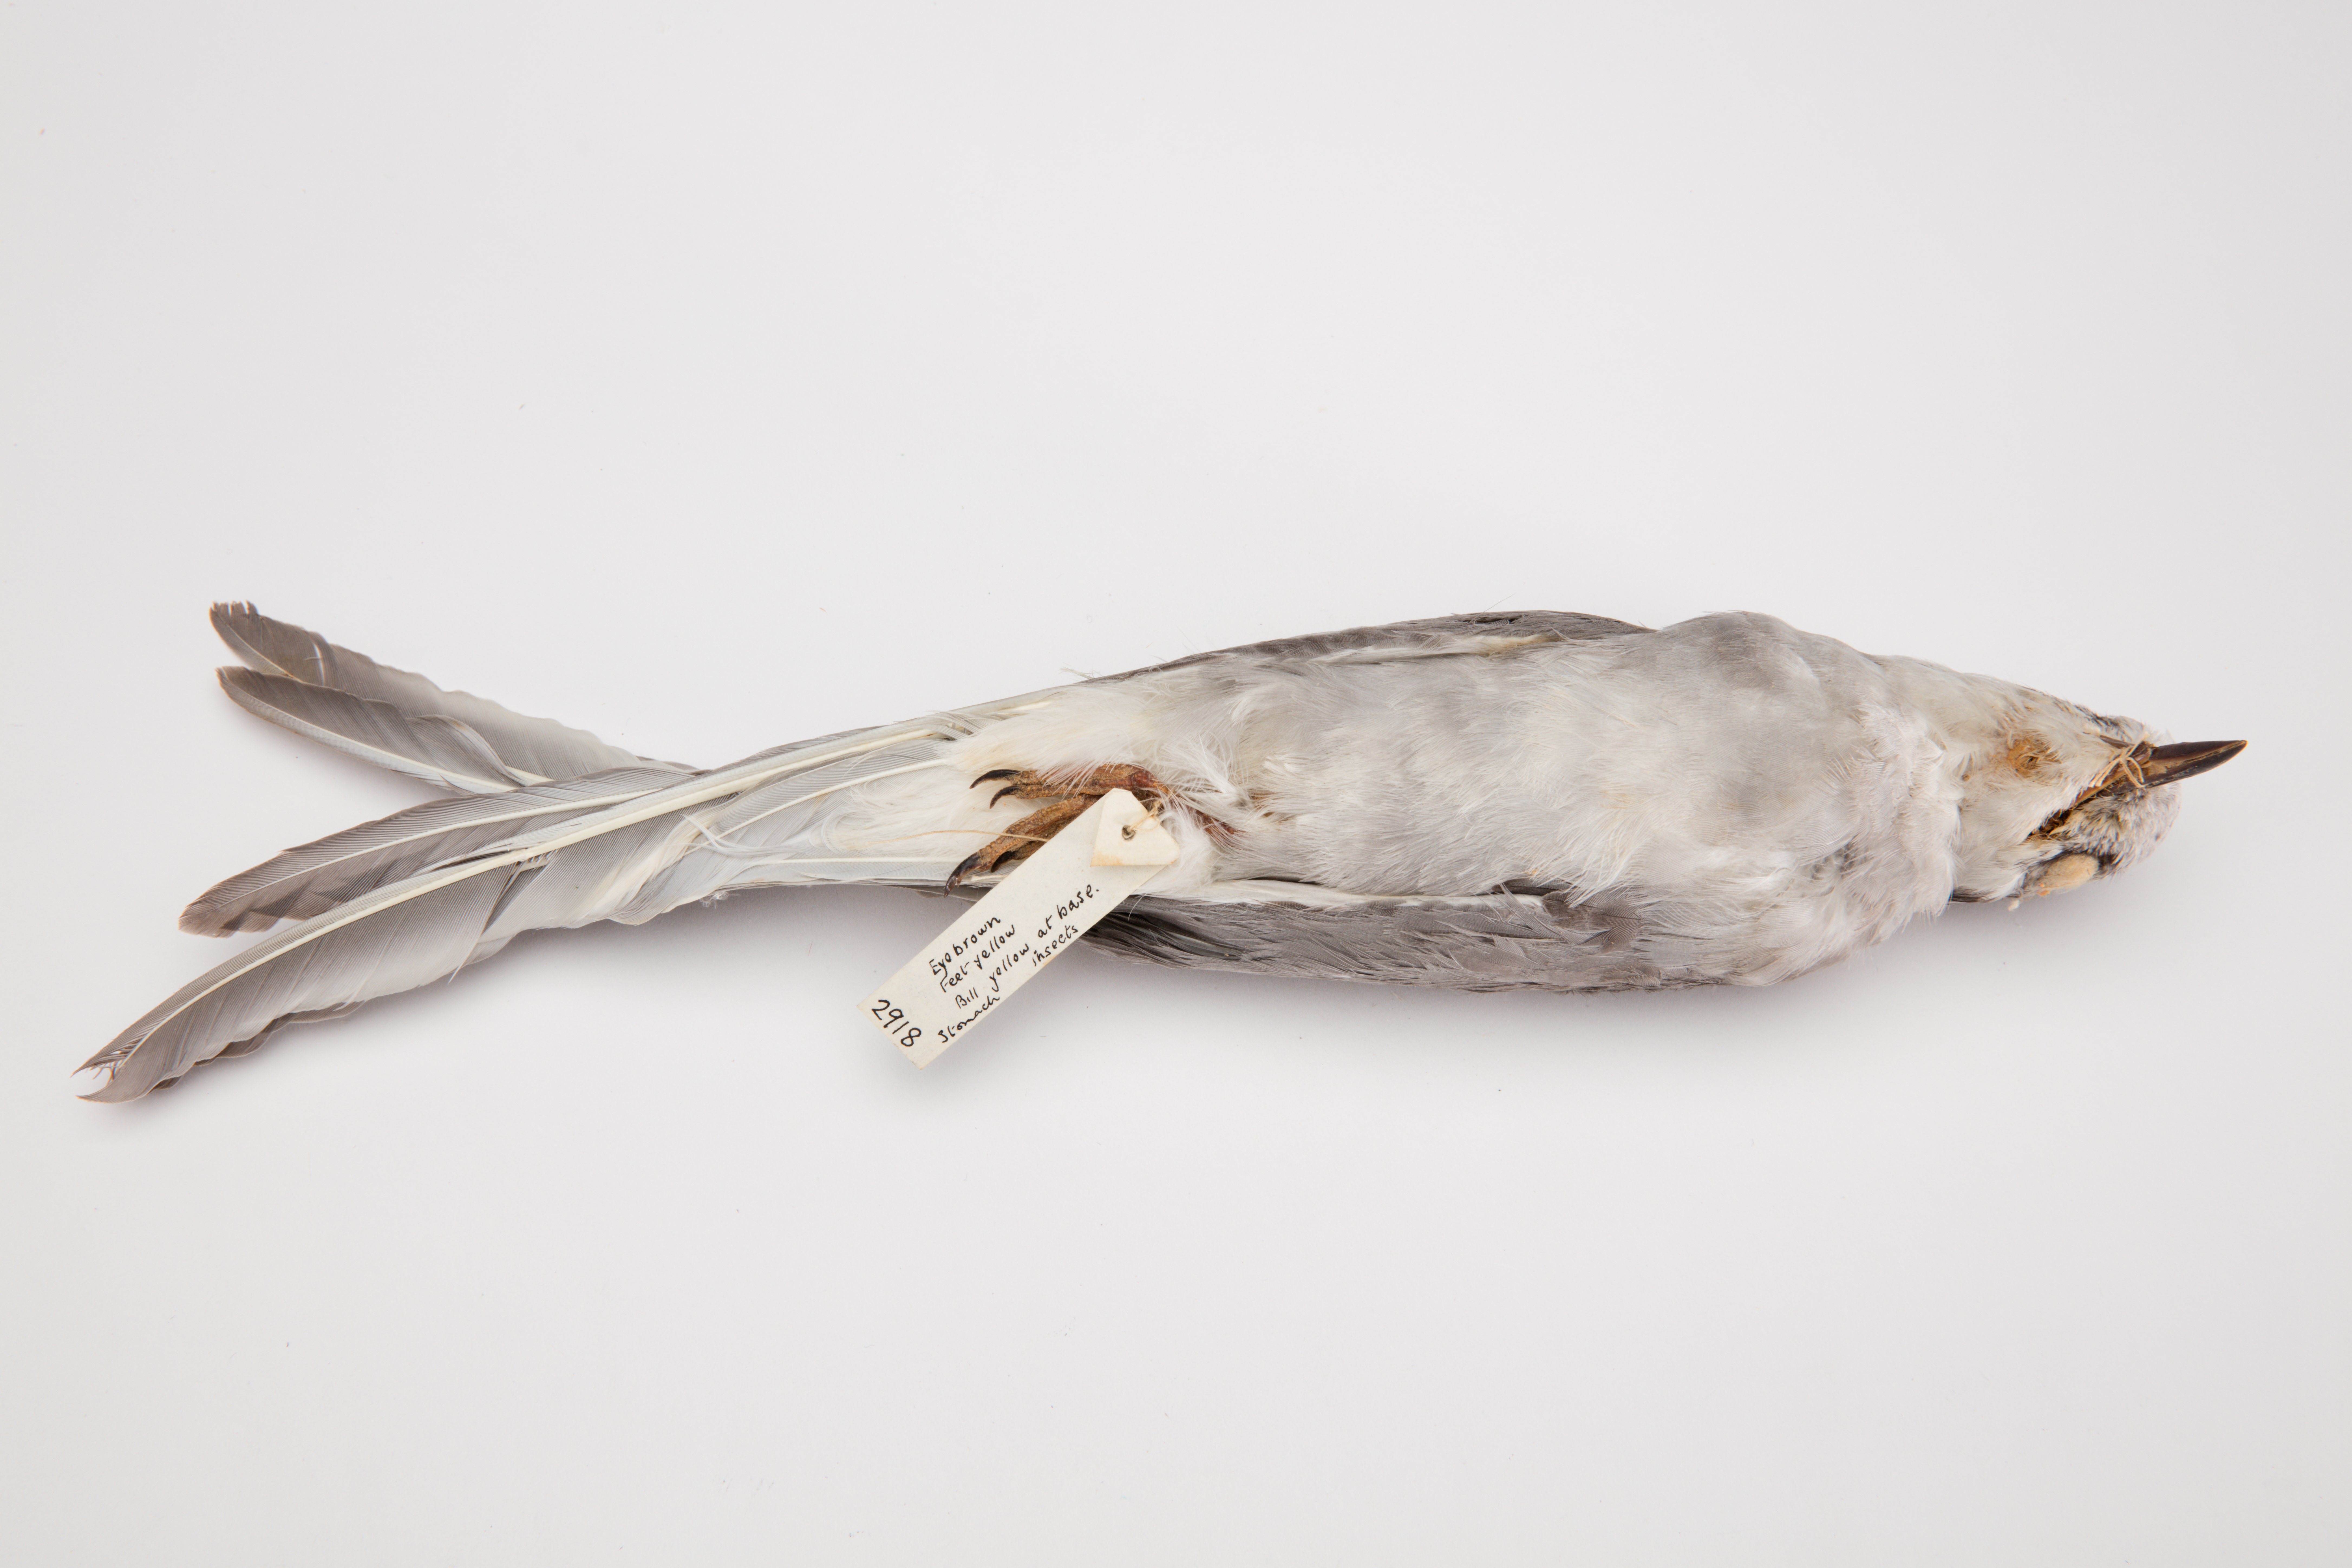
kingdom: Animalia
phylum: Chordata
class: Aves
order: Charadriiformes
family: Laridae
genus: Chlidonias
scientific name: Chlidonias albostriatus
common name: Black-fronted tern
